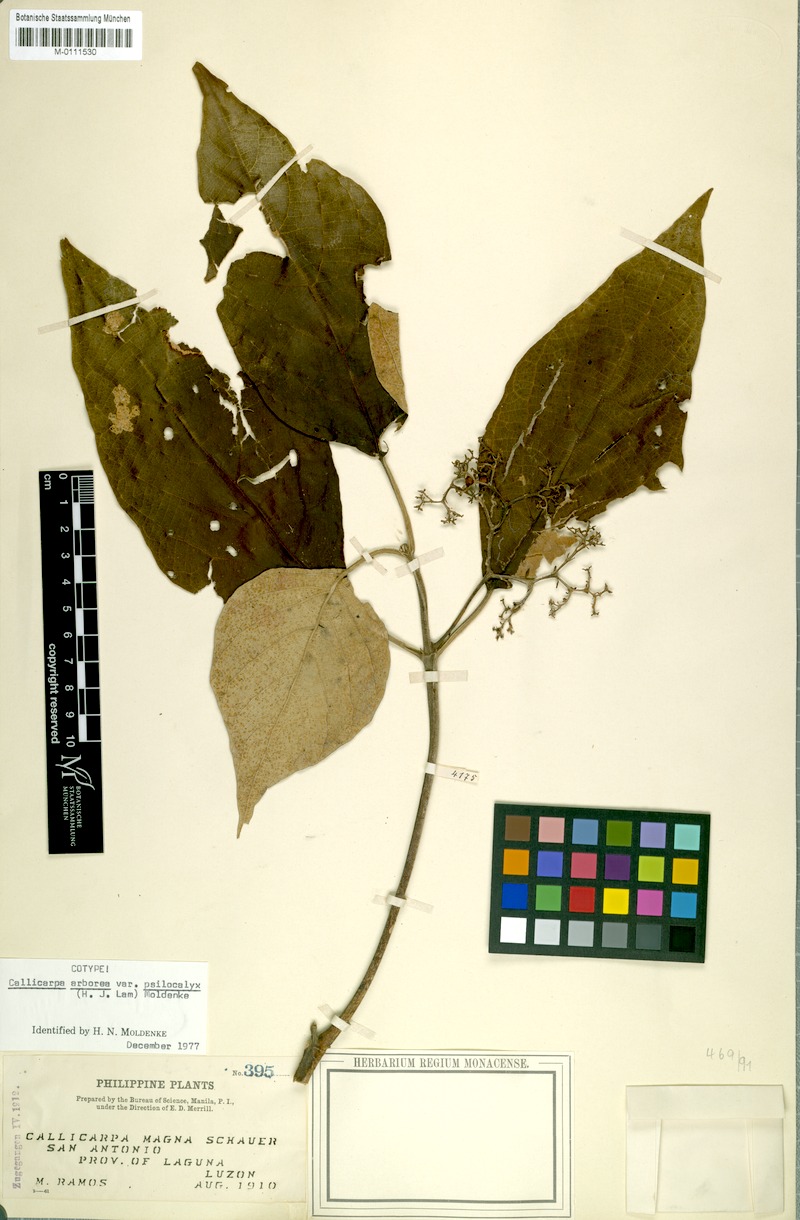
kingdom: Plantae
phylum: Tracheophyta
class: Magnoliopsida
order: Lamiales
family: Lamiaceae
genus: Callicarpa
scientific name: Callicarpa arborea
